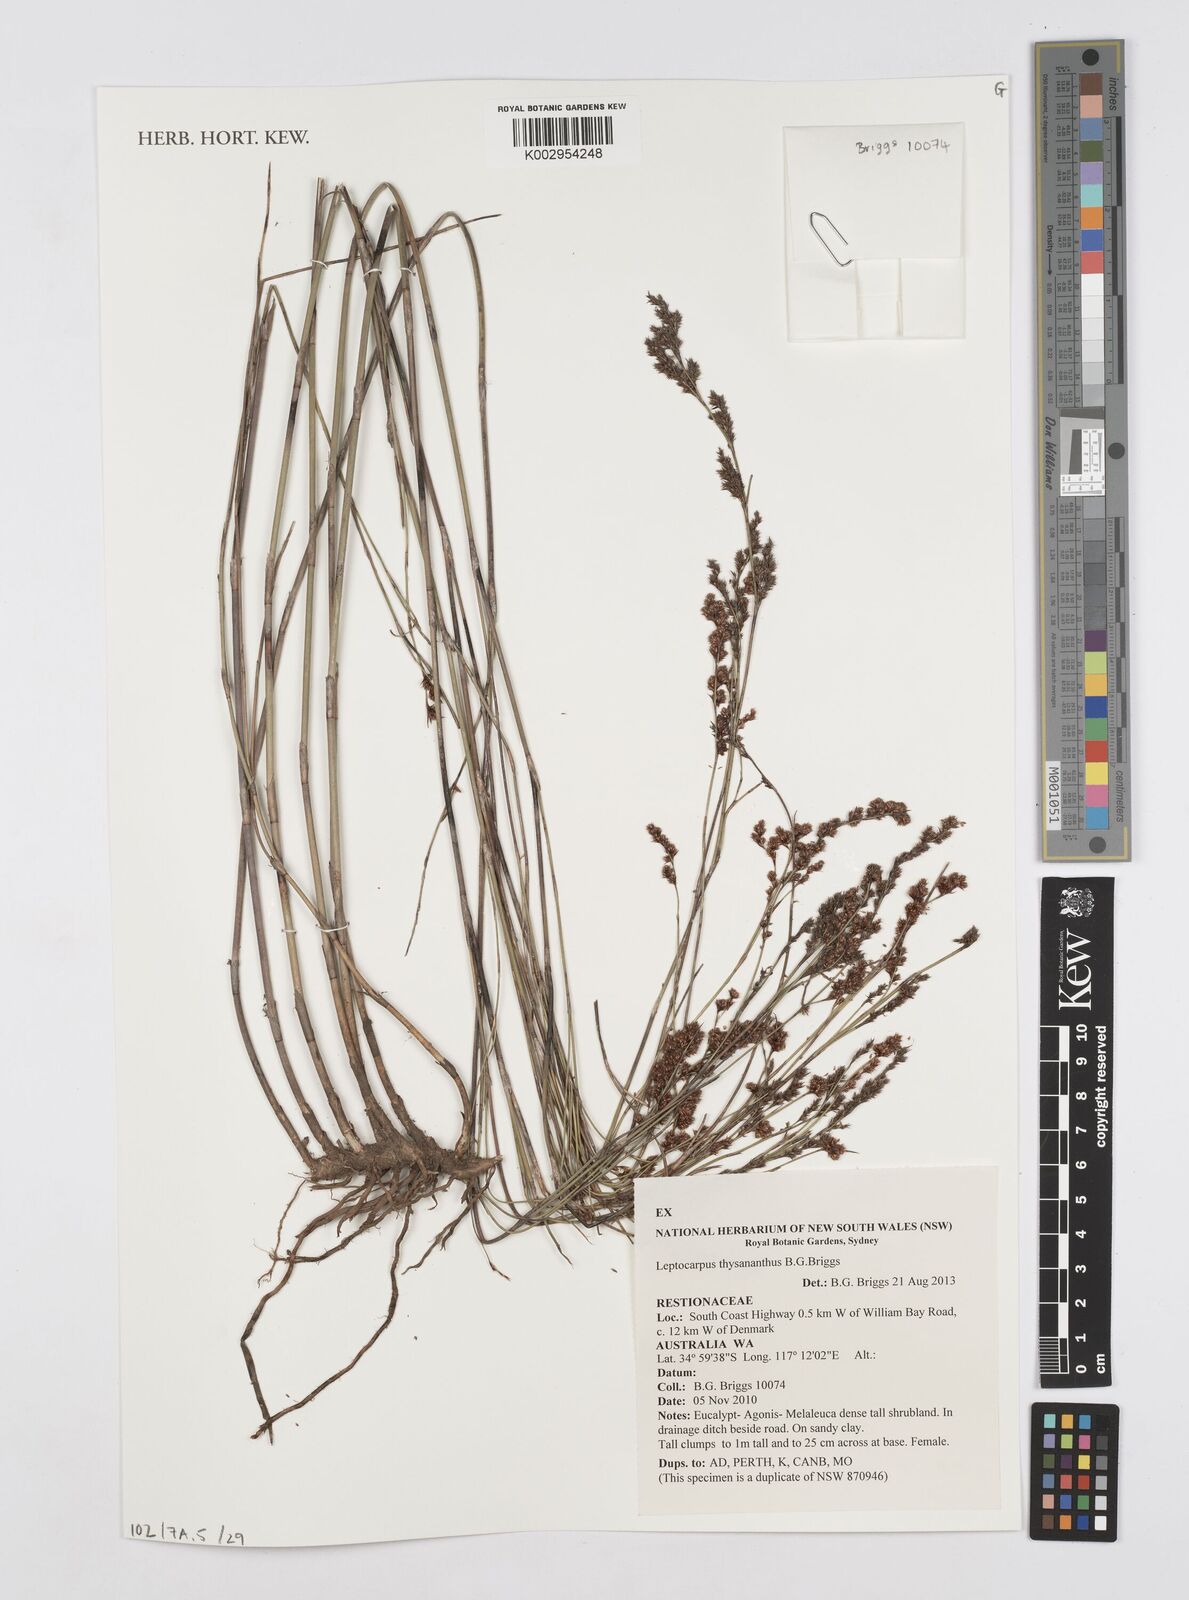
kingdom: Plantae
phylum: Tracheophyta
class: Liliopsida
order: Poales
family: Restionaceae
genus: Leptocarpus
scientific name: Leptocarpus thysananthus
